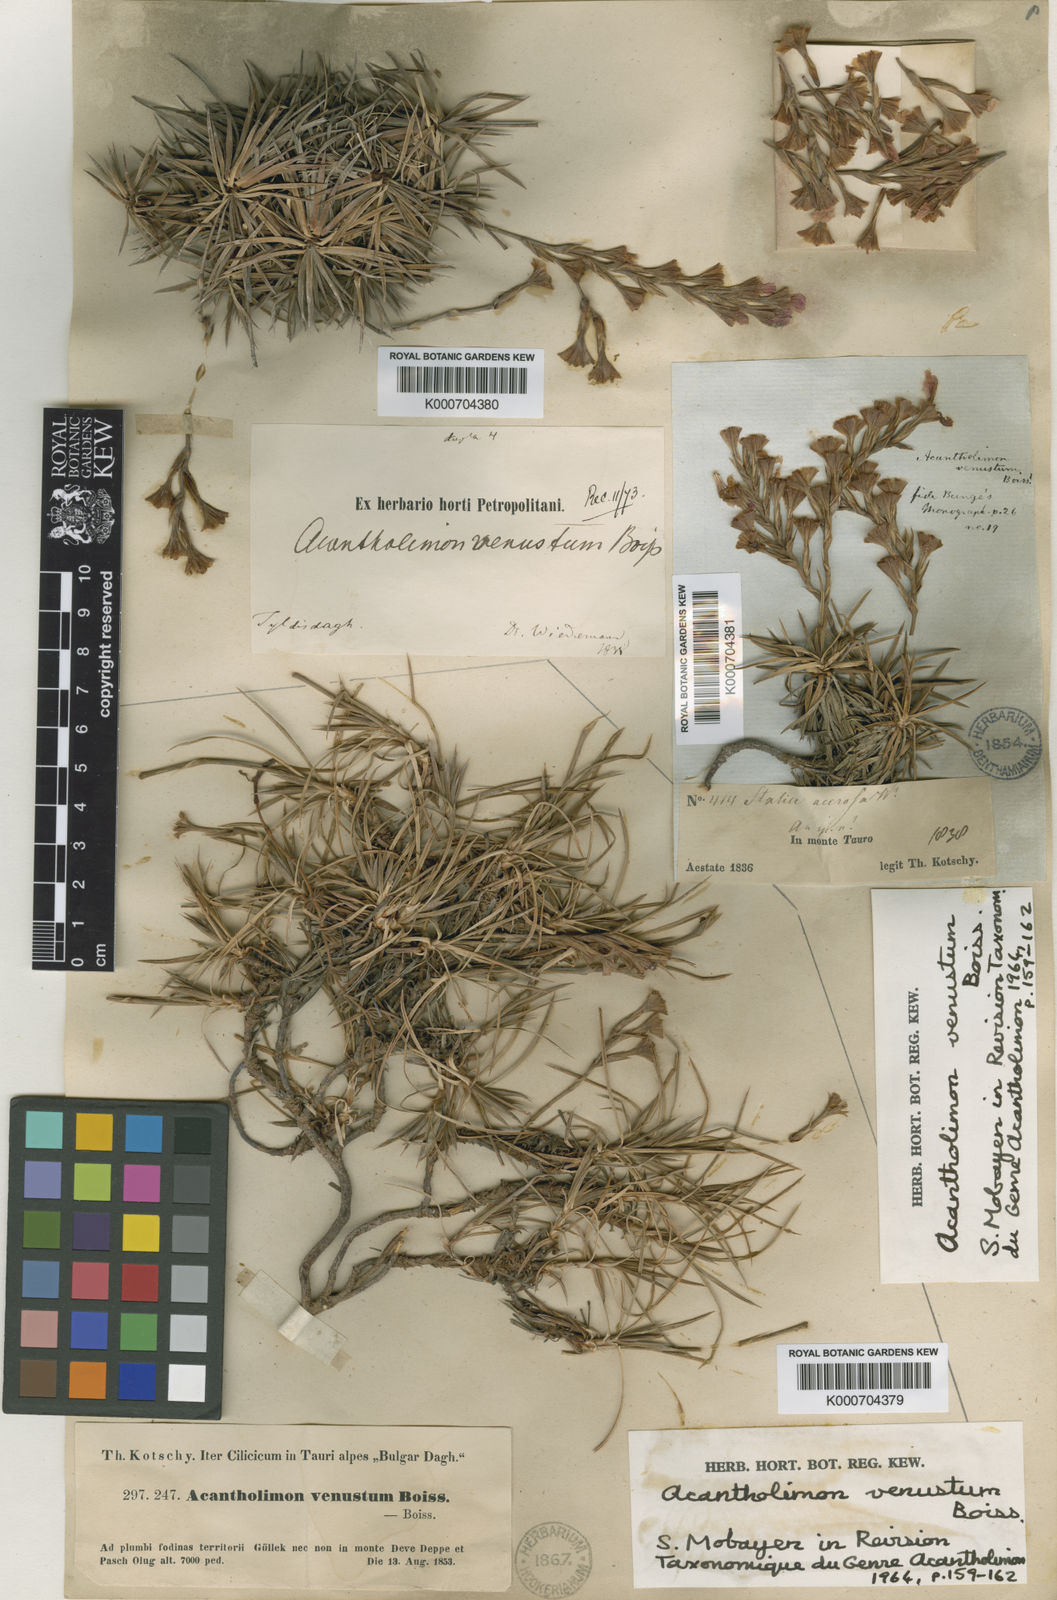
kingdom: Plantae
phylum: Tracheophyta
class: Magnoliopsida
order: Caryophyllales
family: Plumbaginaceae
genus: Acantholimon
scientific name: Acantholimon venustum
